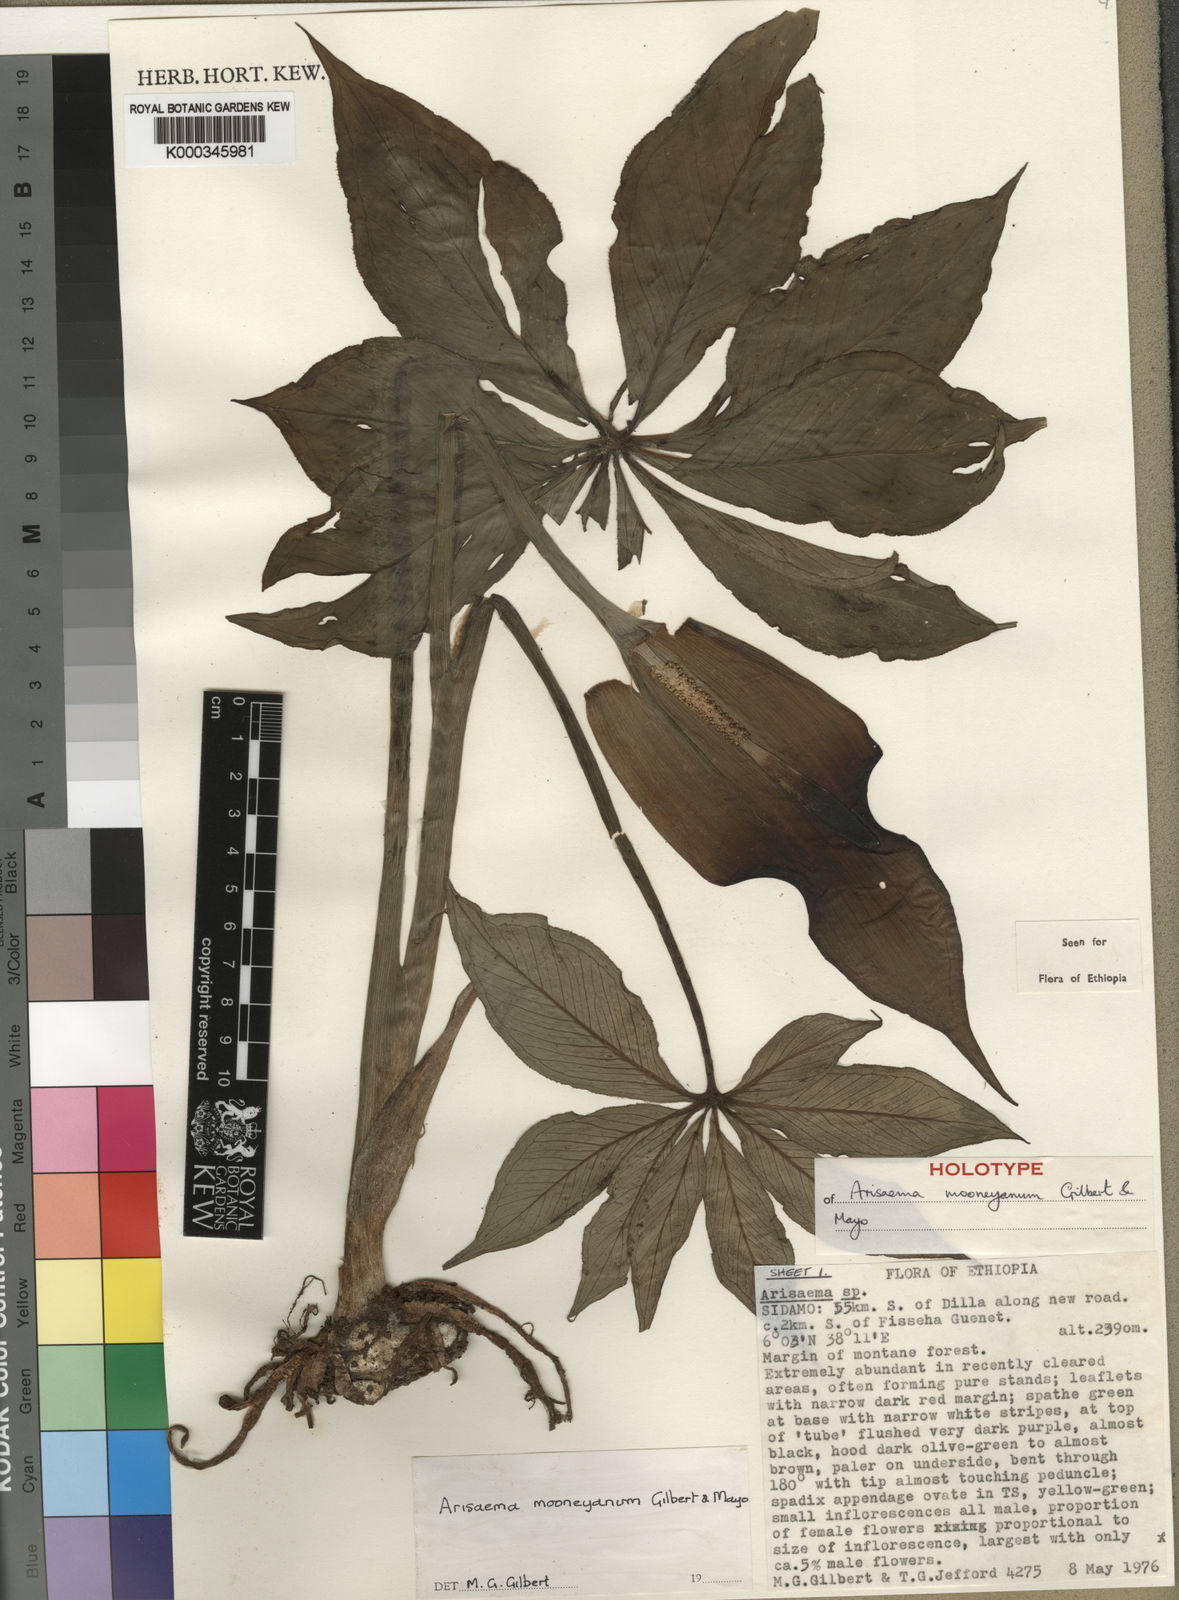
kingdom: Plantae
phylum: Tracheophyta
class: Liliopsida
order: Alismatales
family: Araceae
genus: Arisaema
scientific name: Arisaema mooneyanum
